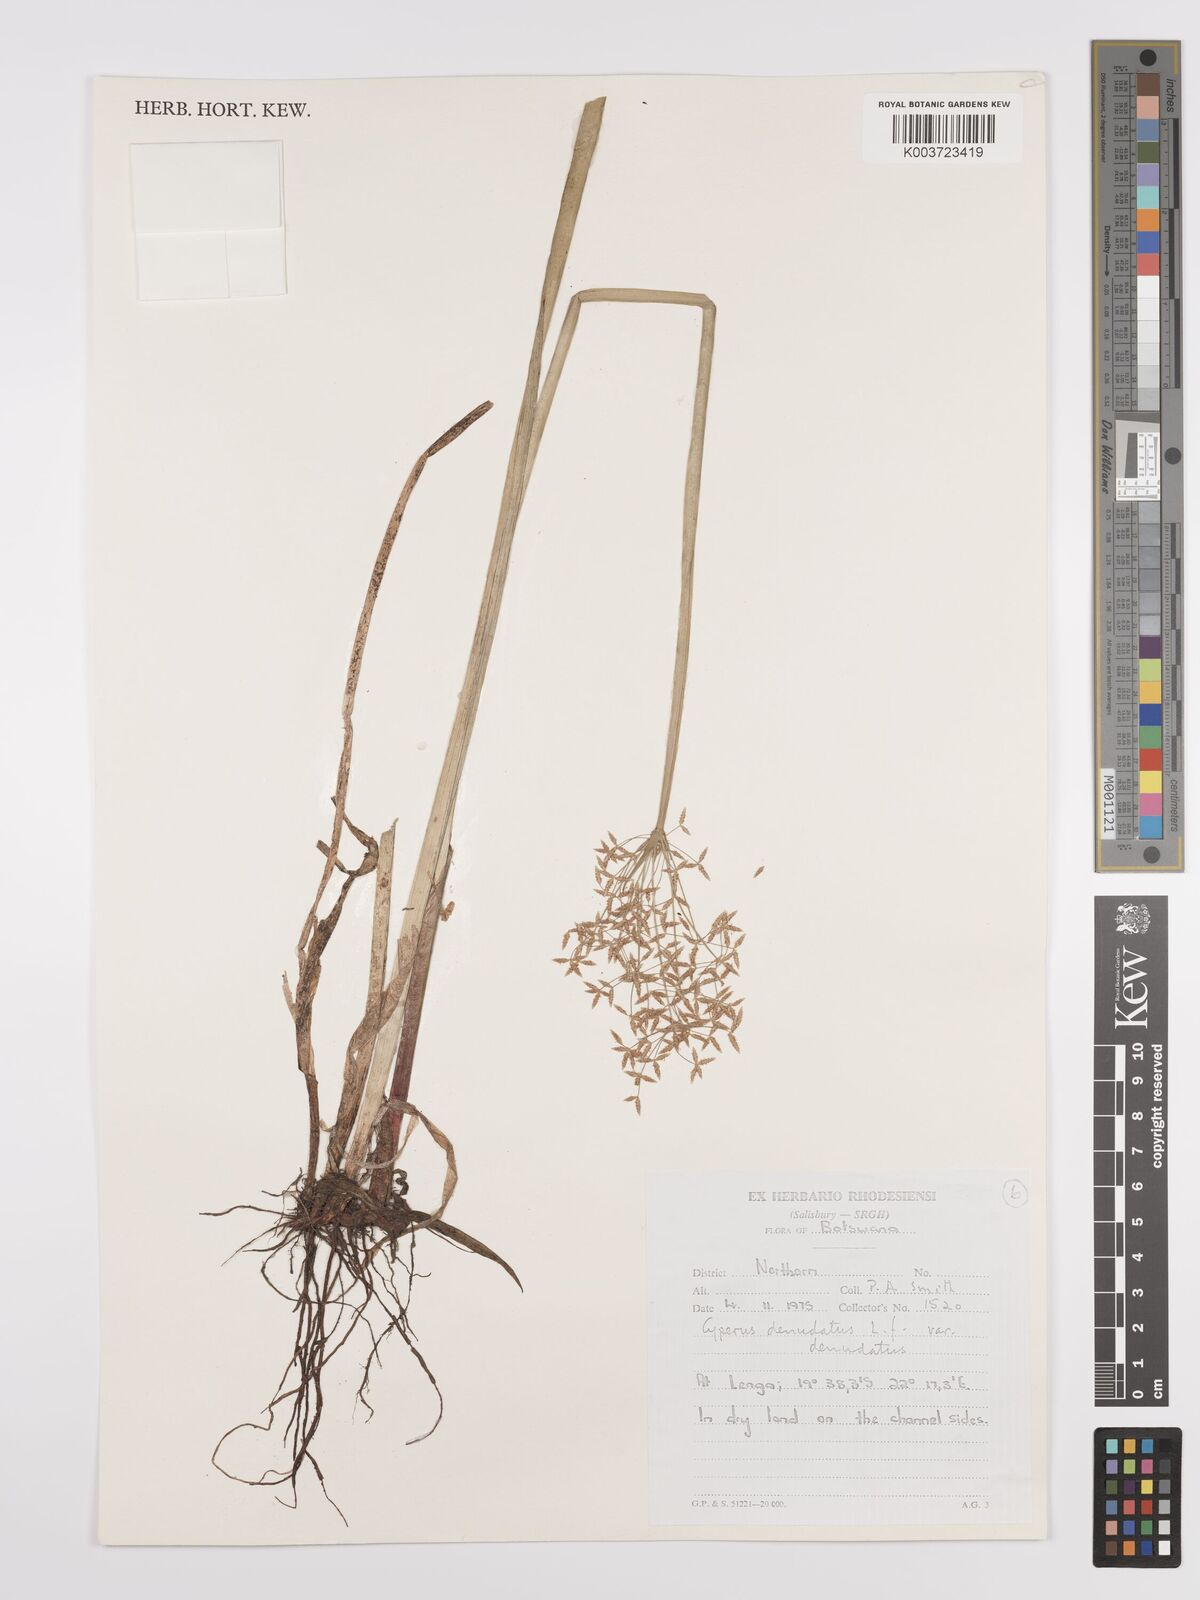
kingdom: Plantae
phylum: Tracheophyta
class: Liliopsida
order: Poales
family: Cyperaceae
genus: Cyperus
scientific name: Cyperus denudatus
